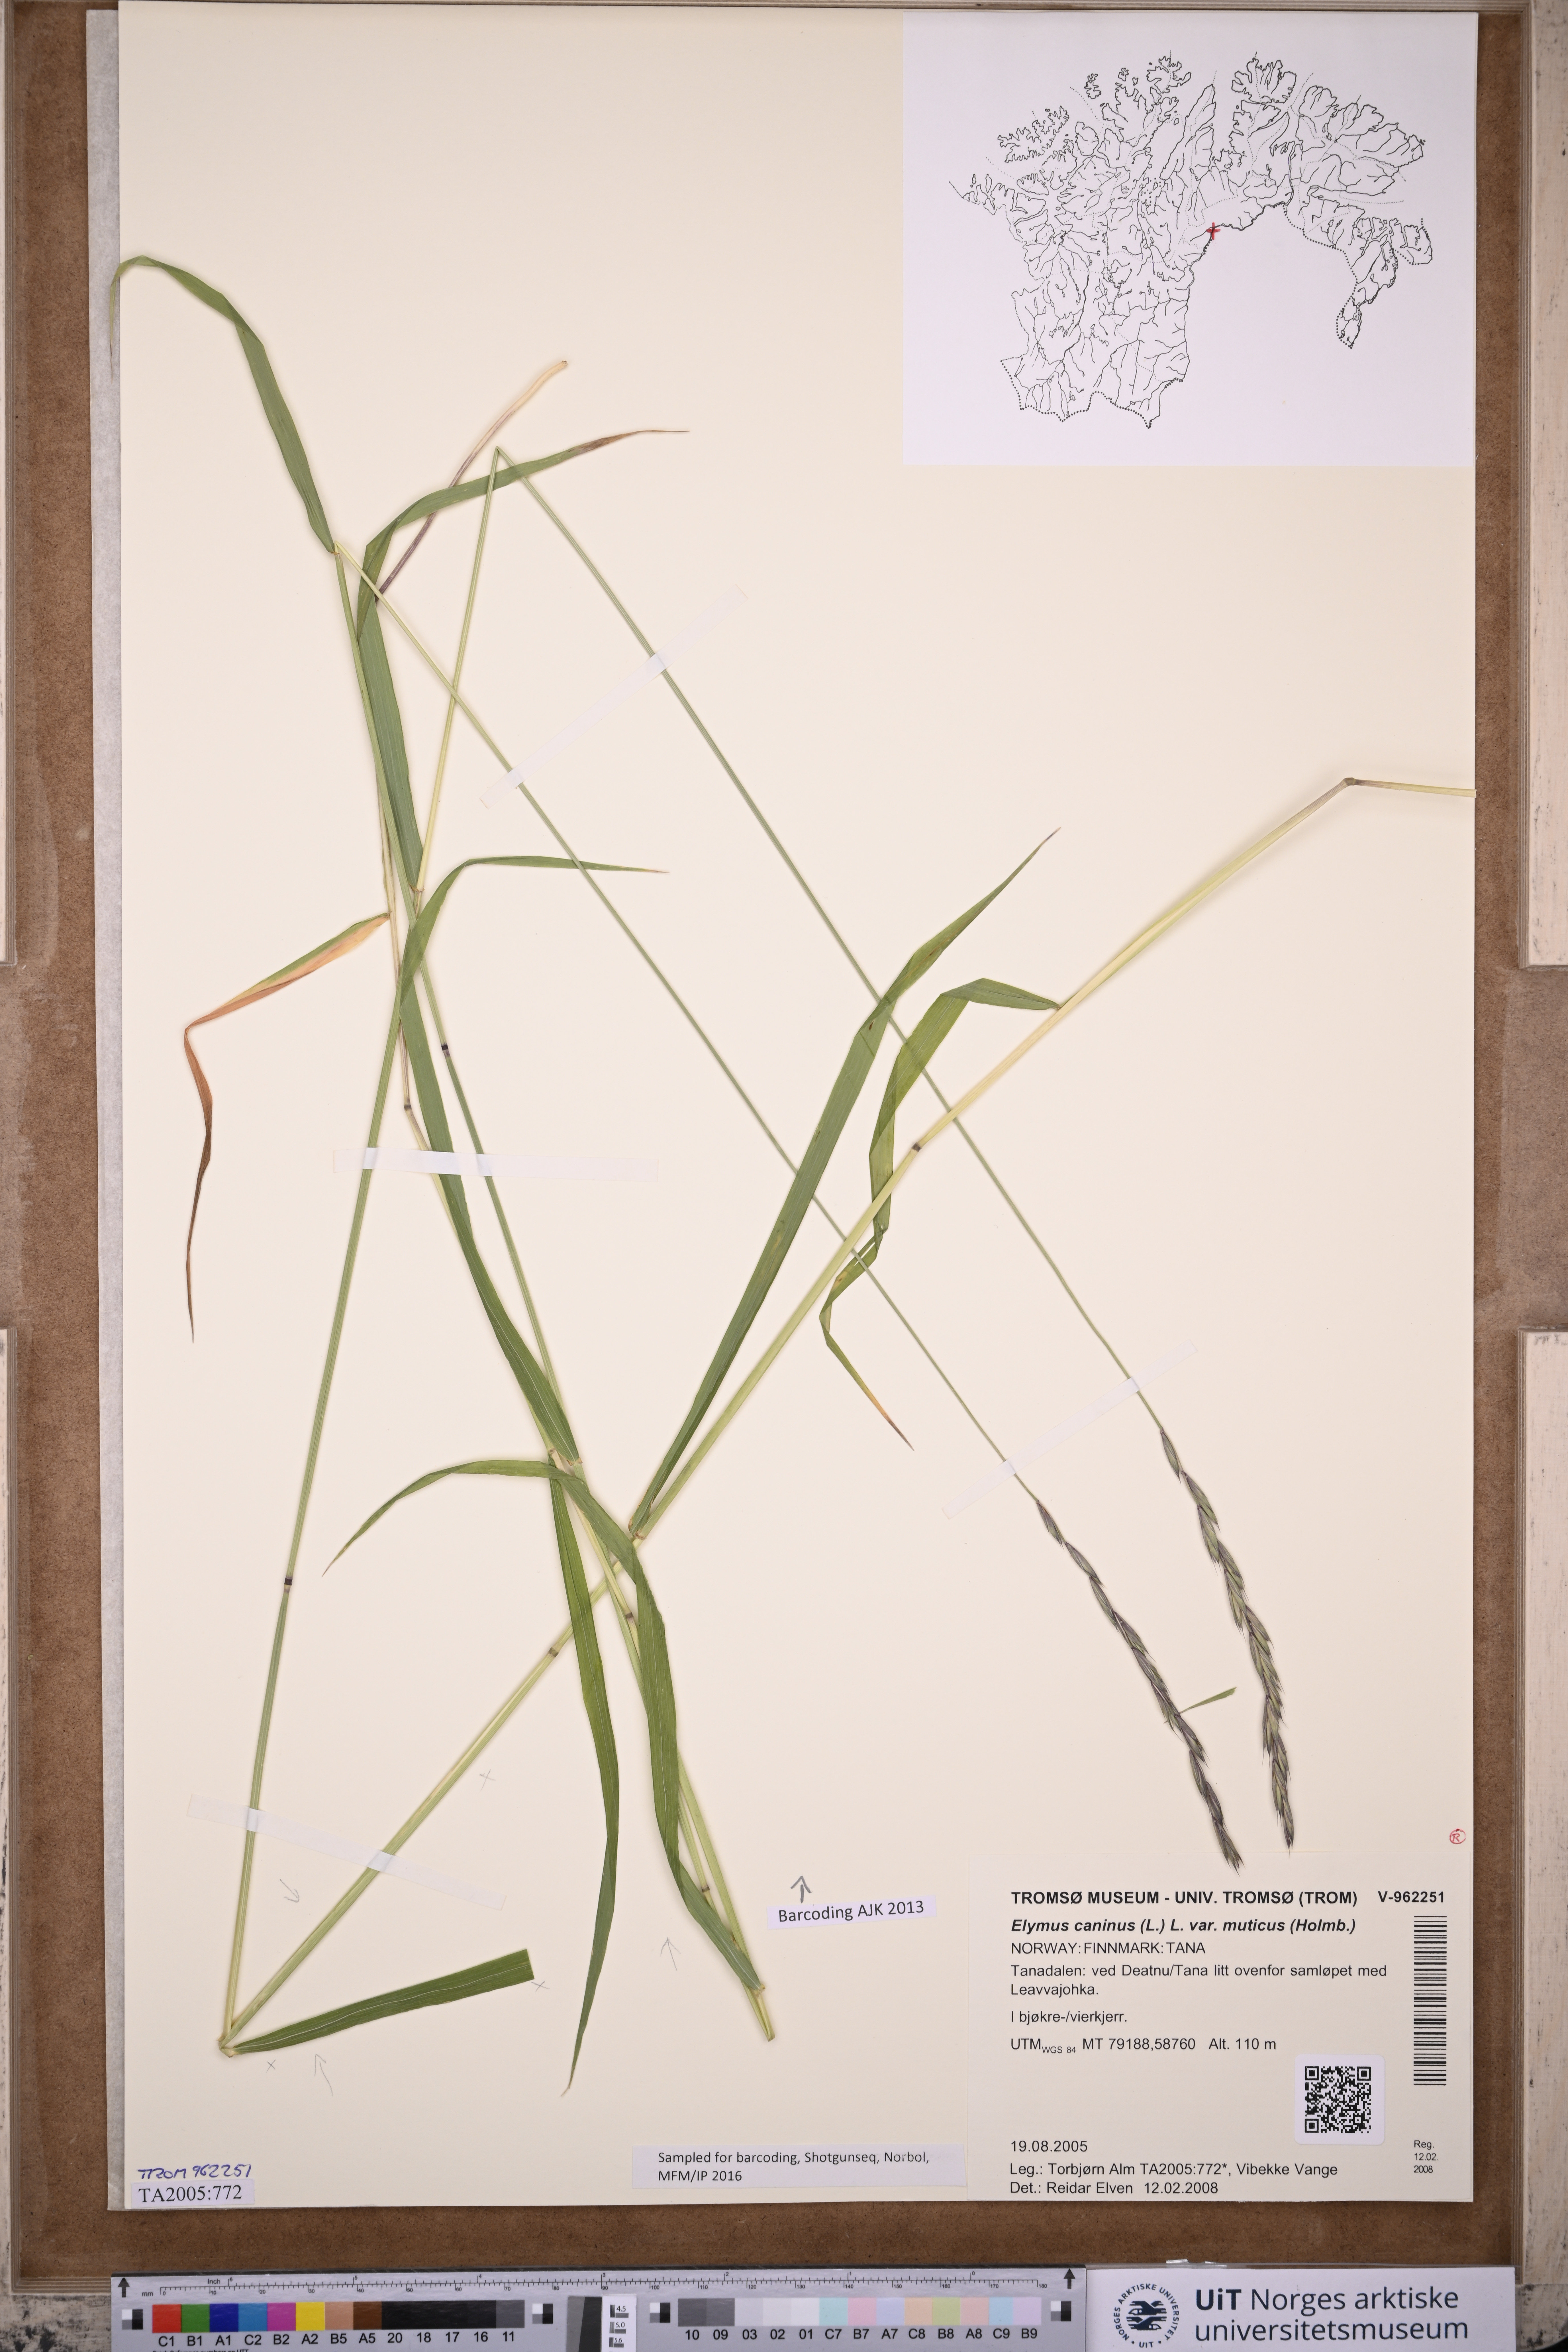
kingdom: Plantae
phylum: Tracheophyta
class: Liliopsida
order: Poales
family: Poaceae
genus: Elymus
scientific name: Elymus caninus
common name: Bearded couch
